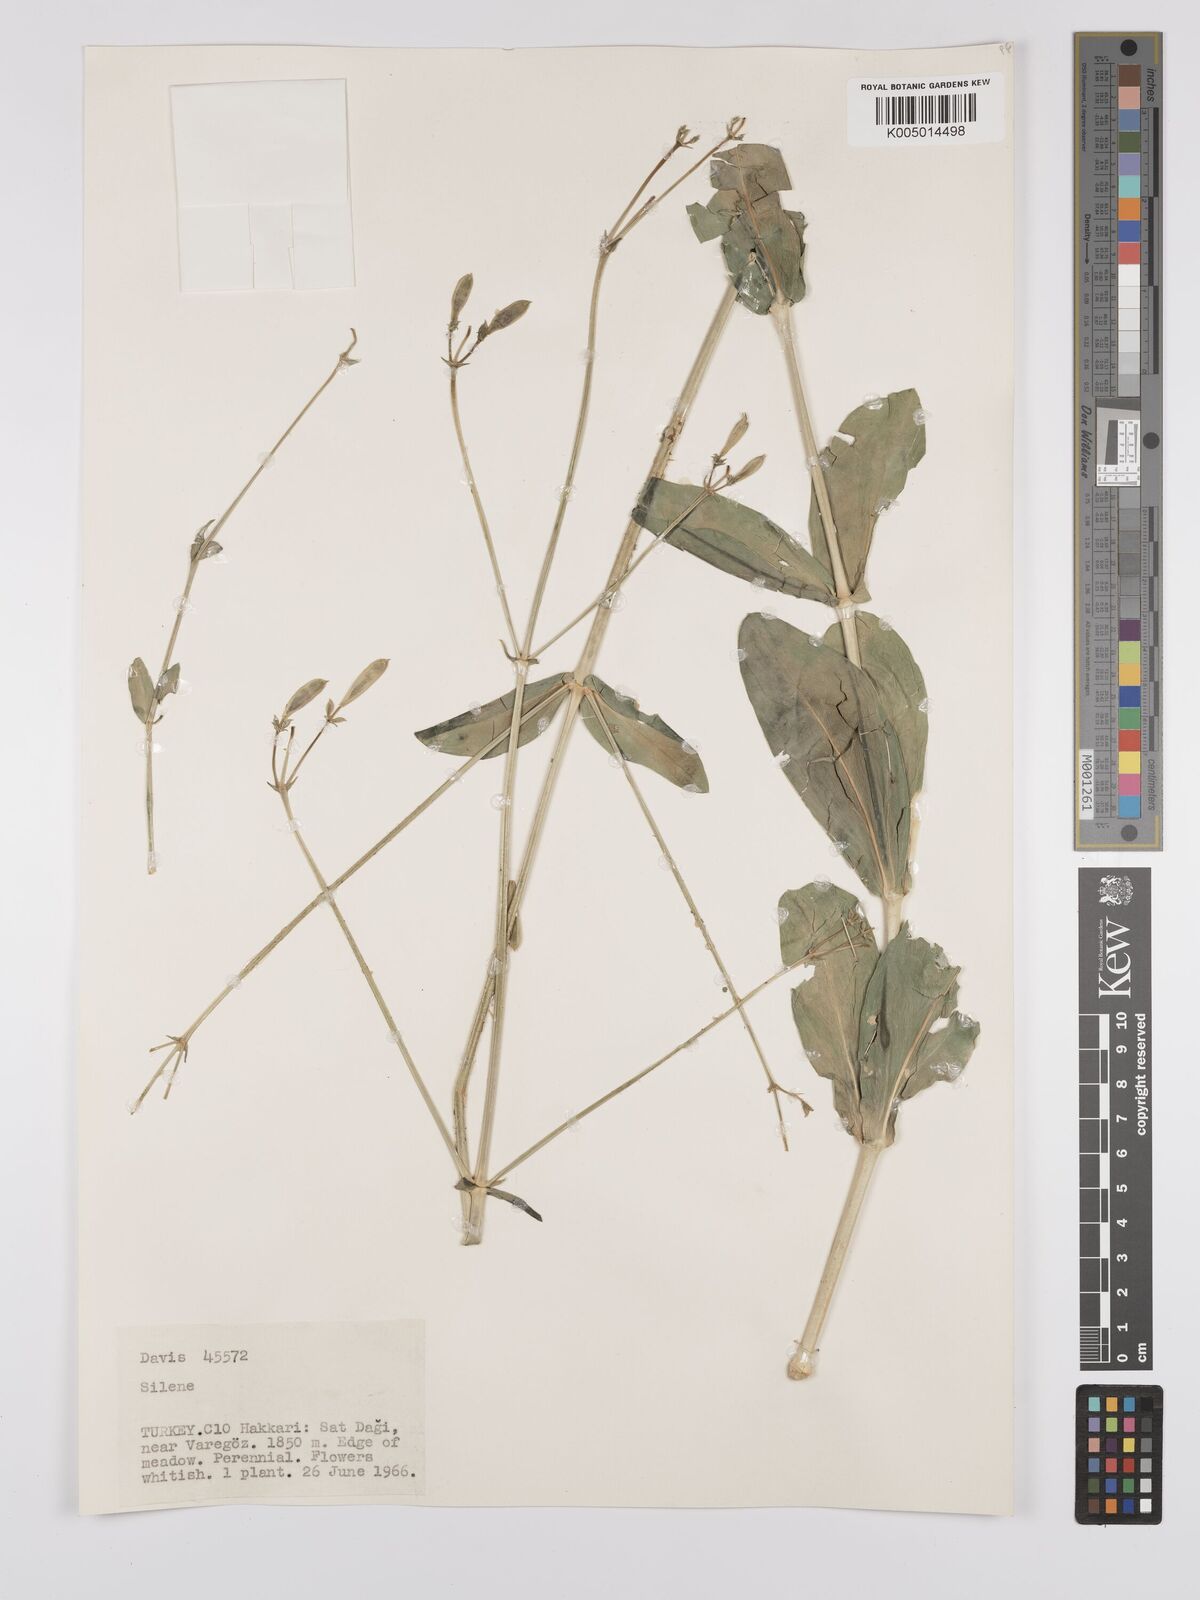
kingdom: Plantae
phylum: Tracheophyta
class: Magnoliopsida
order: Caryophyllales
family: Caryophyllaceae
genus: Silene
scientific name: Silene
